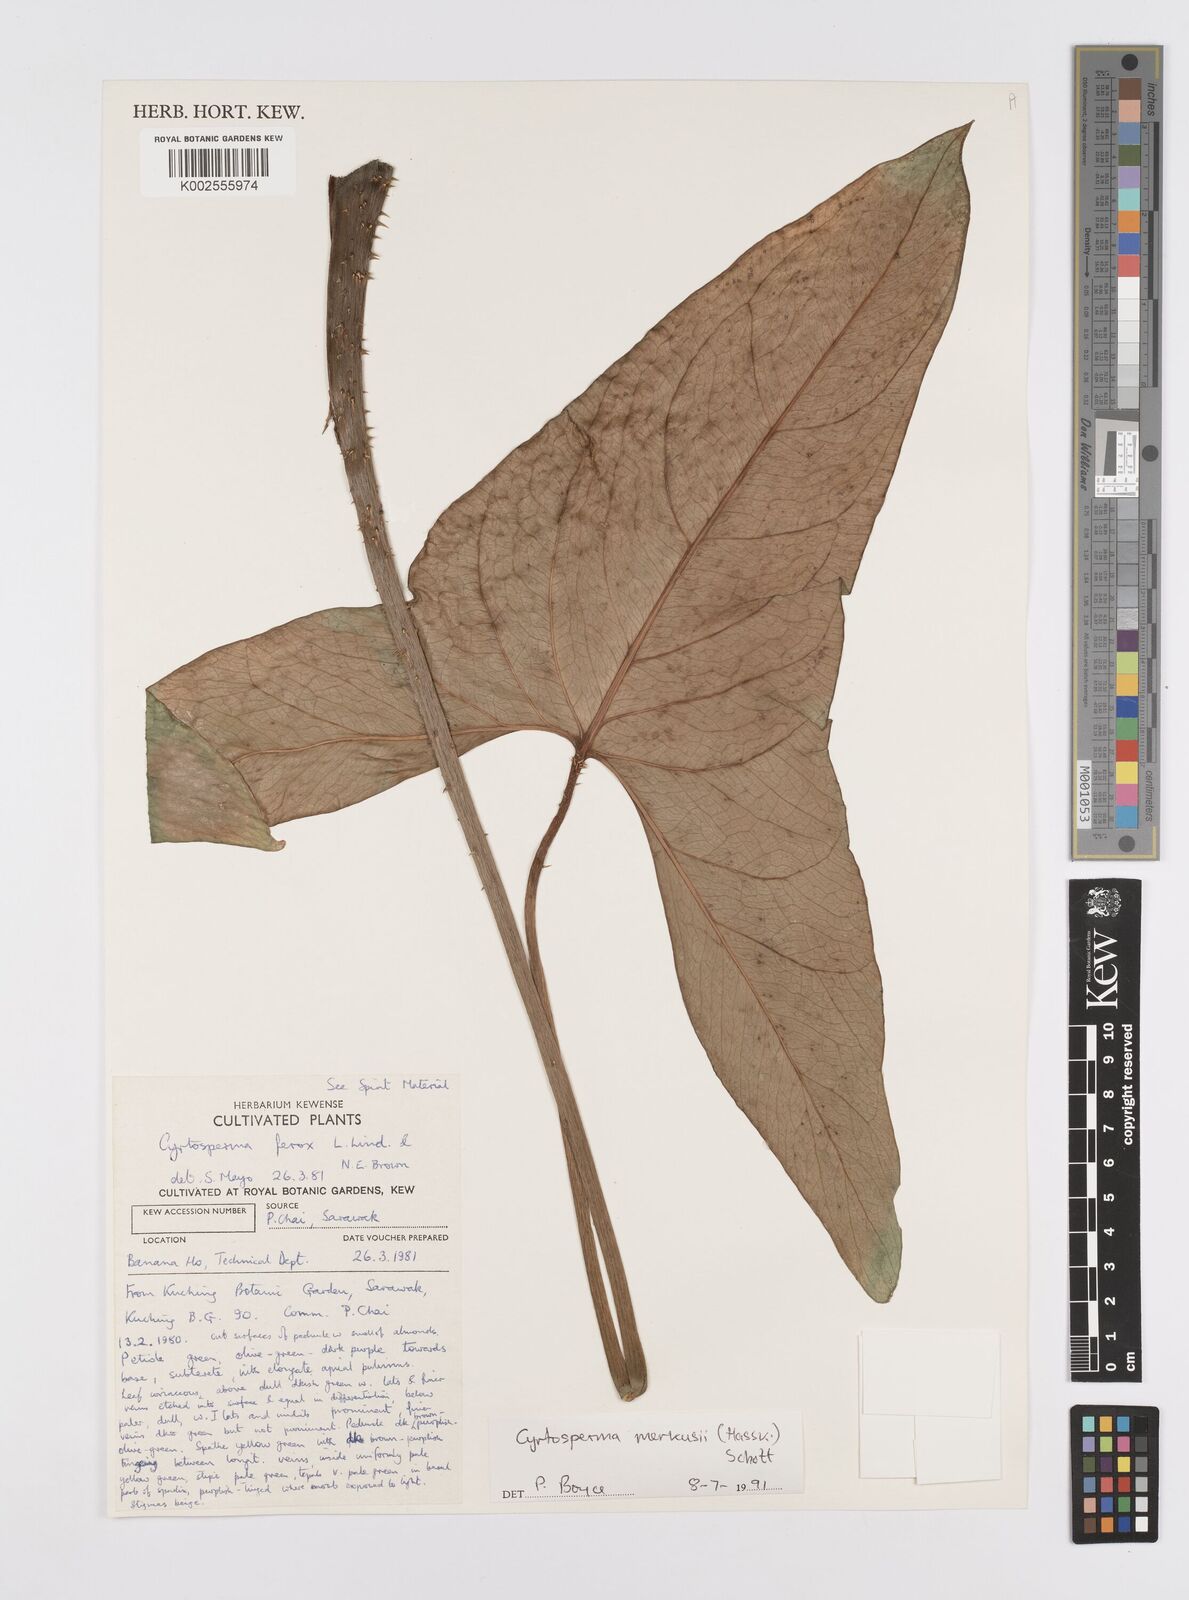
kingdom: Plantae
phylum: Tracheophyta
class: Liliopsida
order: Alismatales
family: Araceae
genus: Cyrtosperma
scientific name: Cyrtosperma merkusii
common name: Giant swamp-taro
